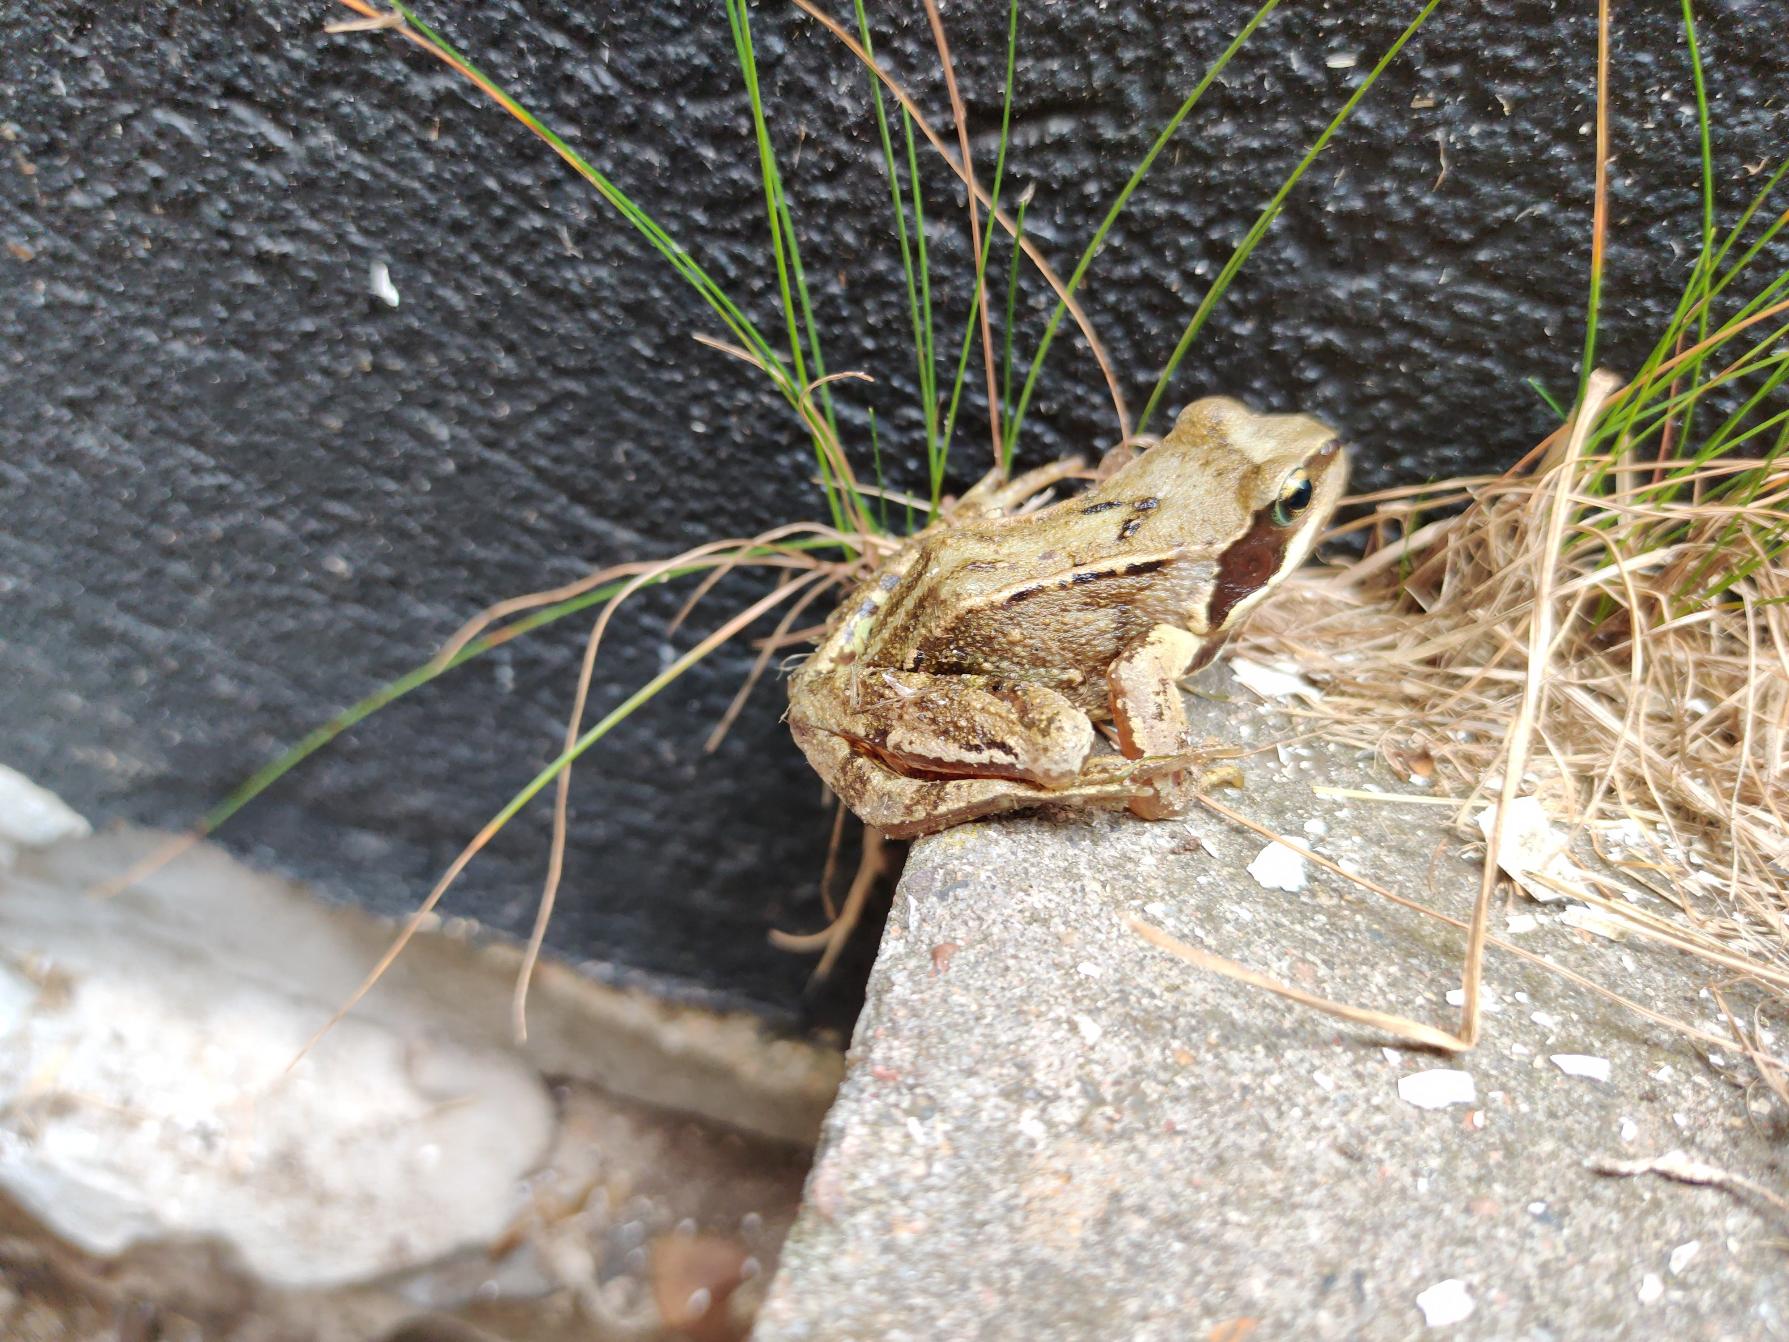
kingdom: Animalia
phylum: Chordata
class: Amphibia
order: Anura
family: Ranidae
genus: Rana
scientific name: Rana temporaria
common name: Butsnudet frø
